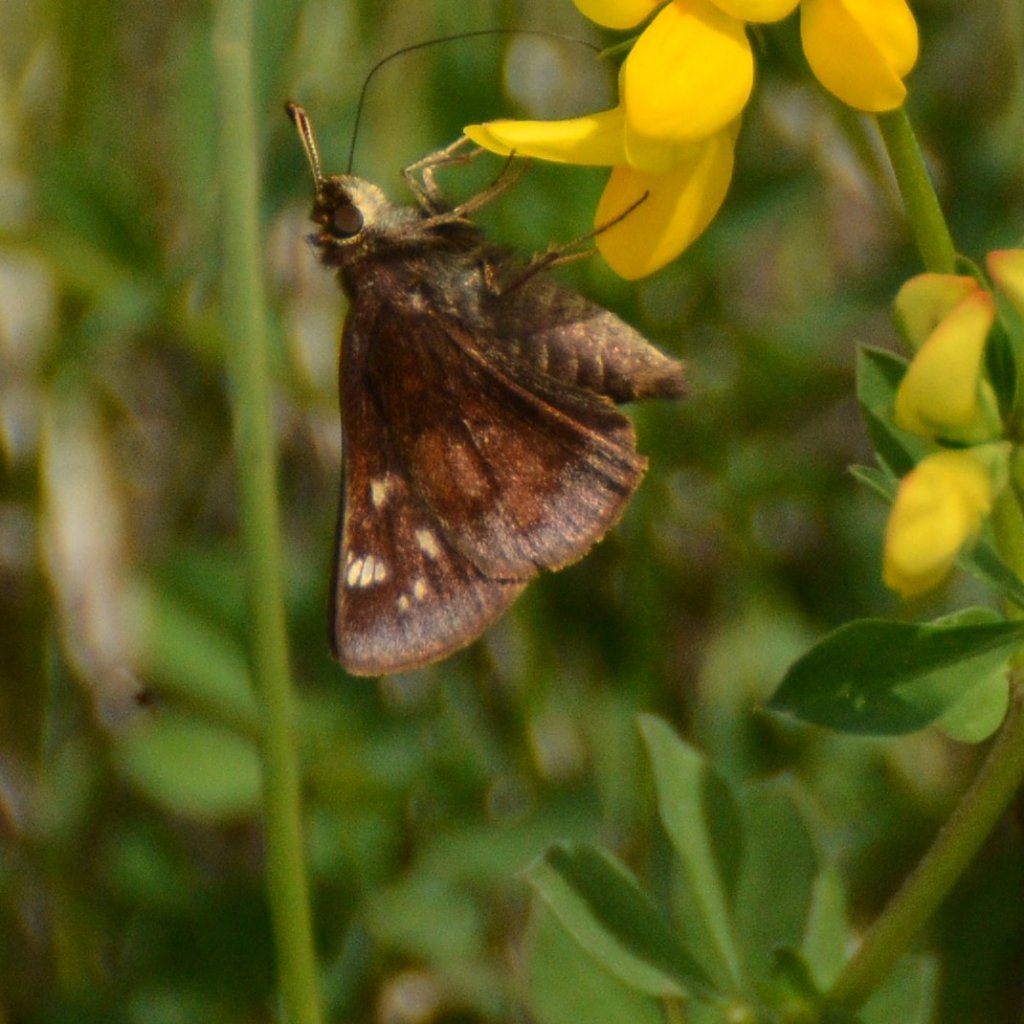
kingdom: Animalia
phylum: Arthropoda
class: Insecta
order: Lepidoptera
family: Hesperiidae
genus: Lon
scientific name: Lon hobomok
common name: Hobomok Skipper
